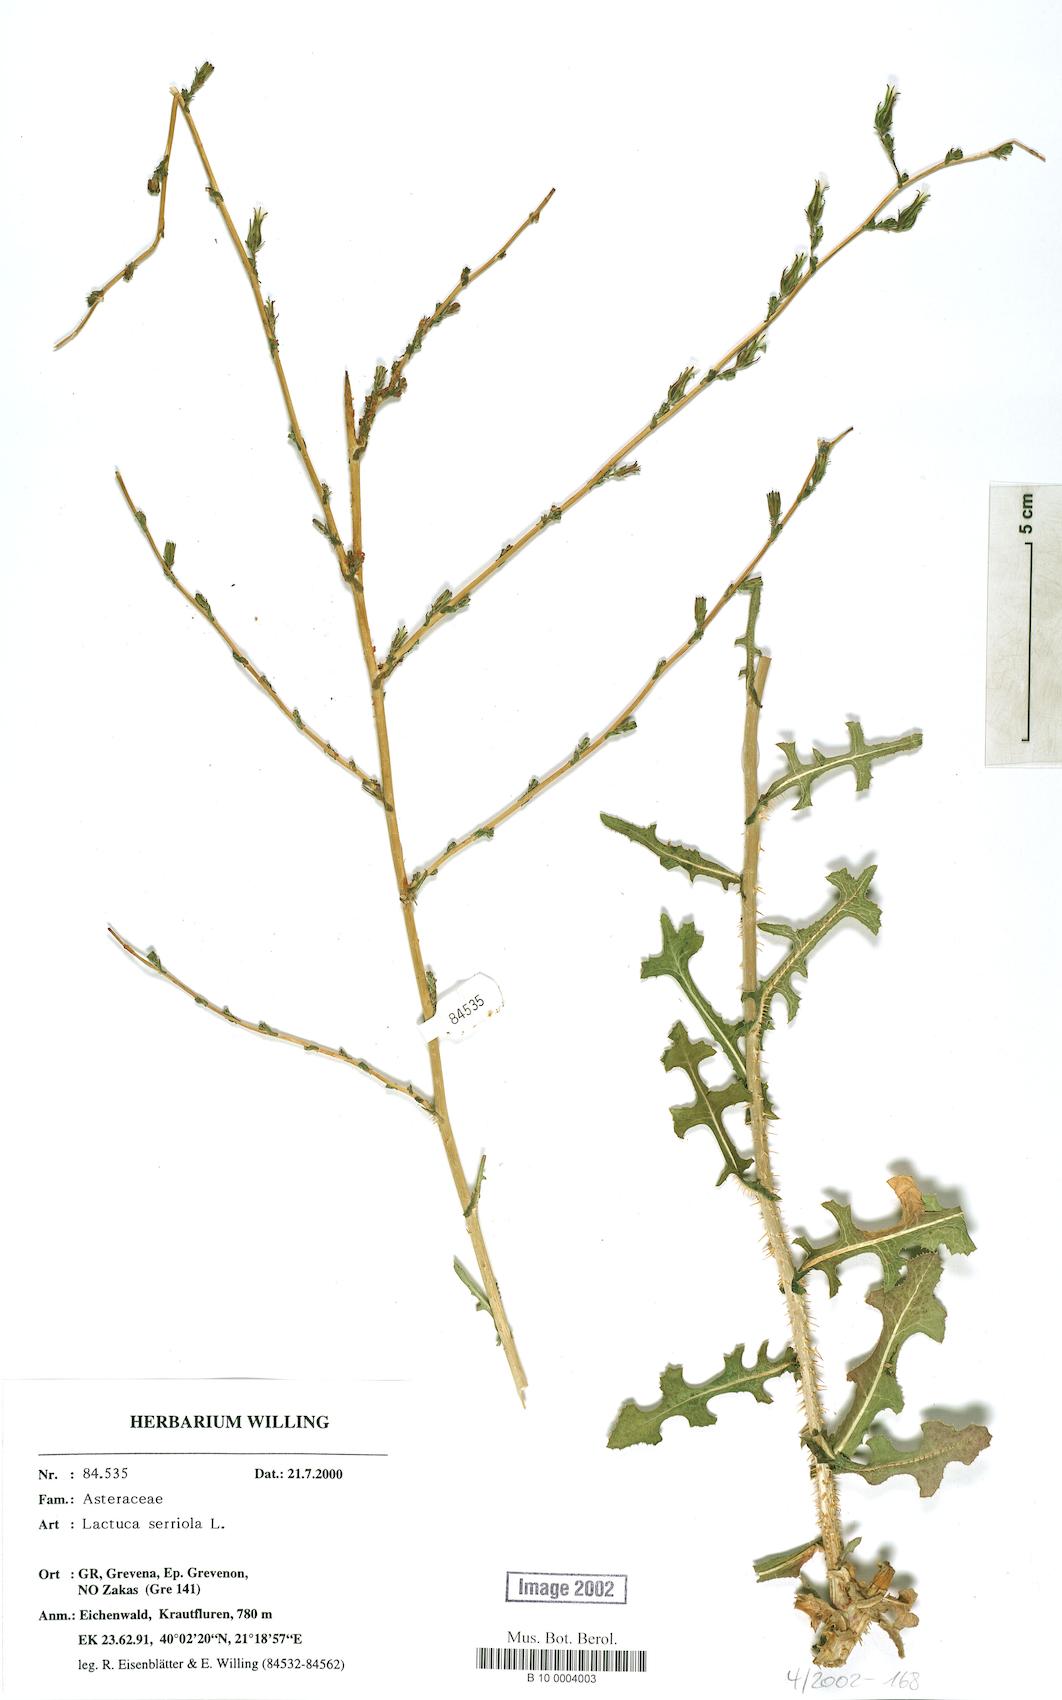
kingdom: Plantae
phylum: Tracheophyta
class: Magnoliopsida
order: Asterales
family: Asteraceae
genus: Lactuca
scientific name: Lactuca serriola
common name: Prickly lettuce
